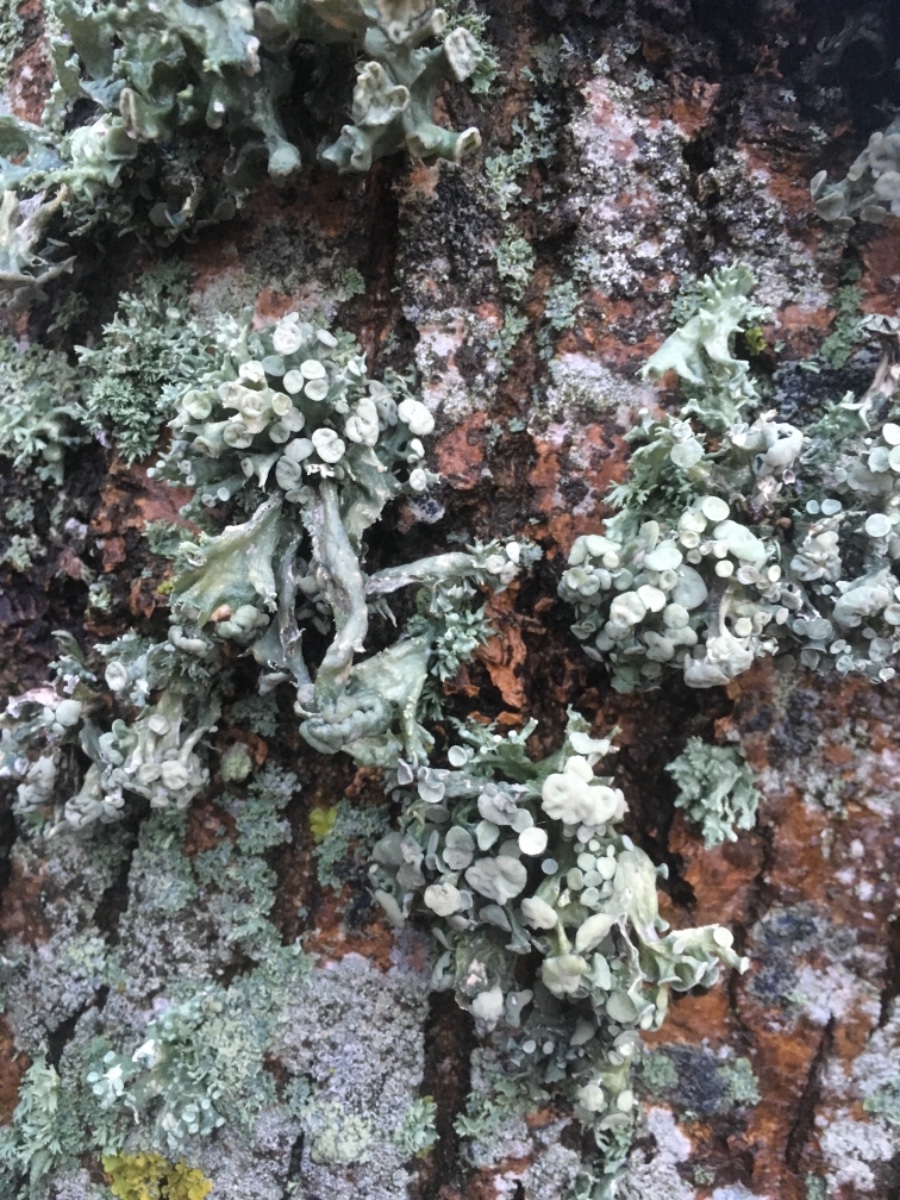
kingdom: Fungi
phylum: Ascomycota
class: Lecanoromycetes
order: Lecanorales
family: Ramalinaceae
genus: Ramalina
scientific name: Ramalina fastigiata
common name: tue-grenlav
